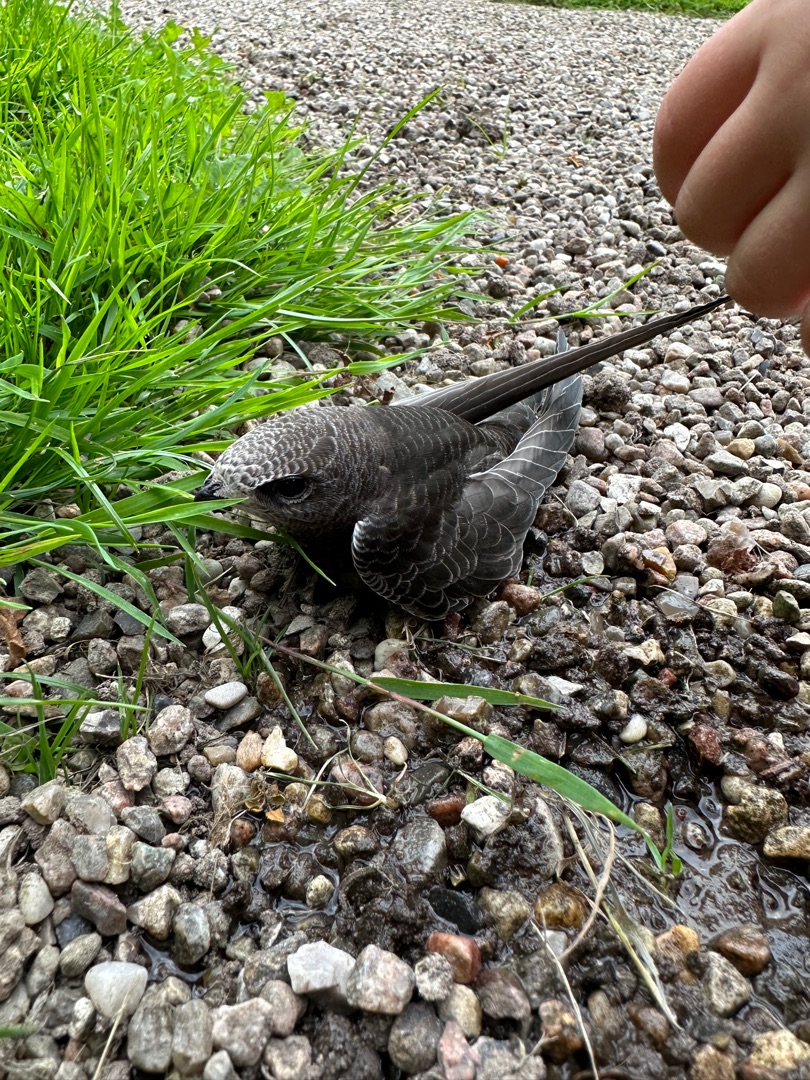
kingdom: Animalia
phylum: Chordata
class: Aves
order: Apodiformes
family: Apodidae
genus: Apus
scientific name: Apus apus
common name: Mursejler
